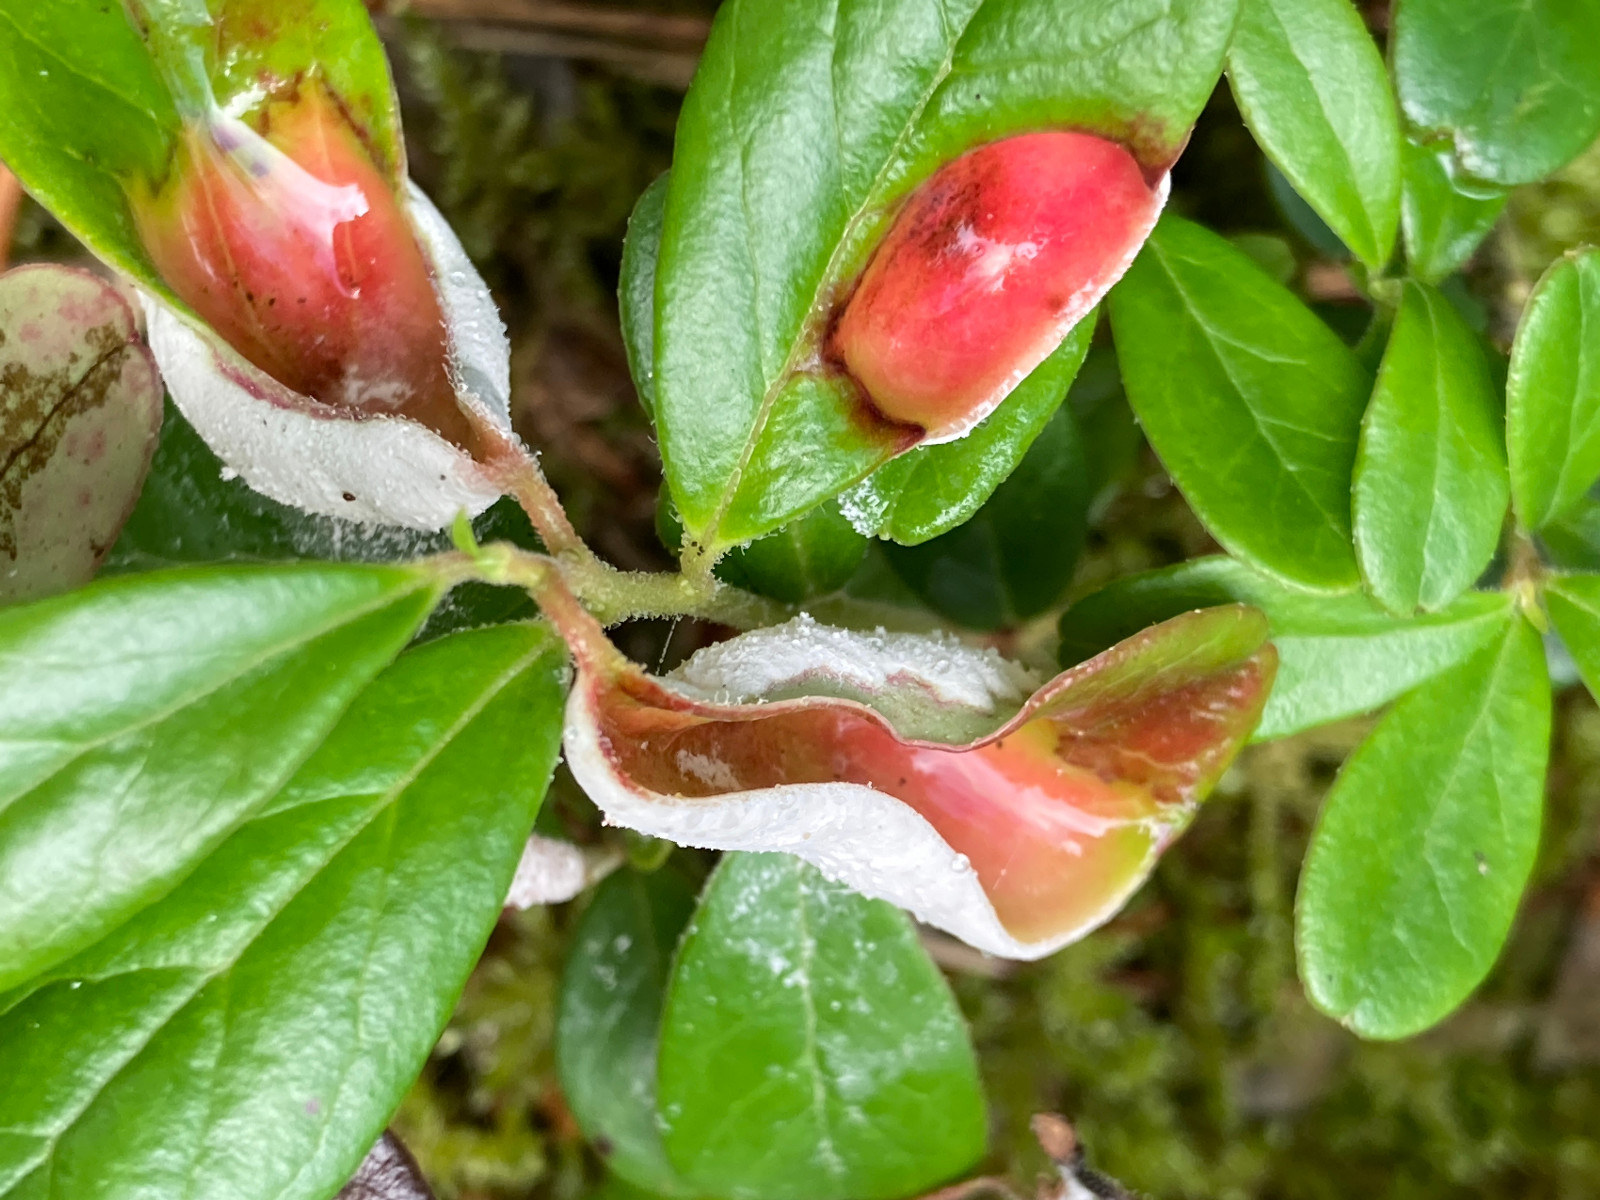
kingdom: Fungi
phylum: Basidiomycota
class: Exobasidiomycetes
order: Exobasidiales
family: Exobasidiaceae
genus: Exobasidium
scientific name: Exobasidium vaccinii
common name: tyttebærblad-bøllesvamp
